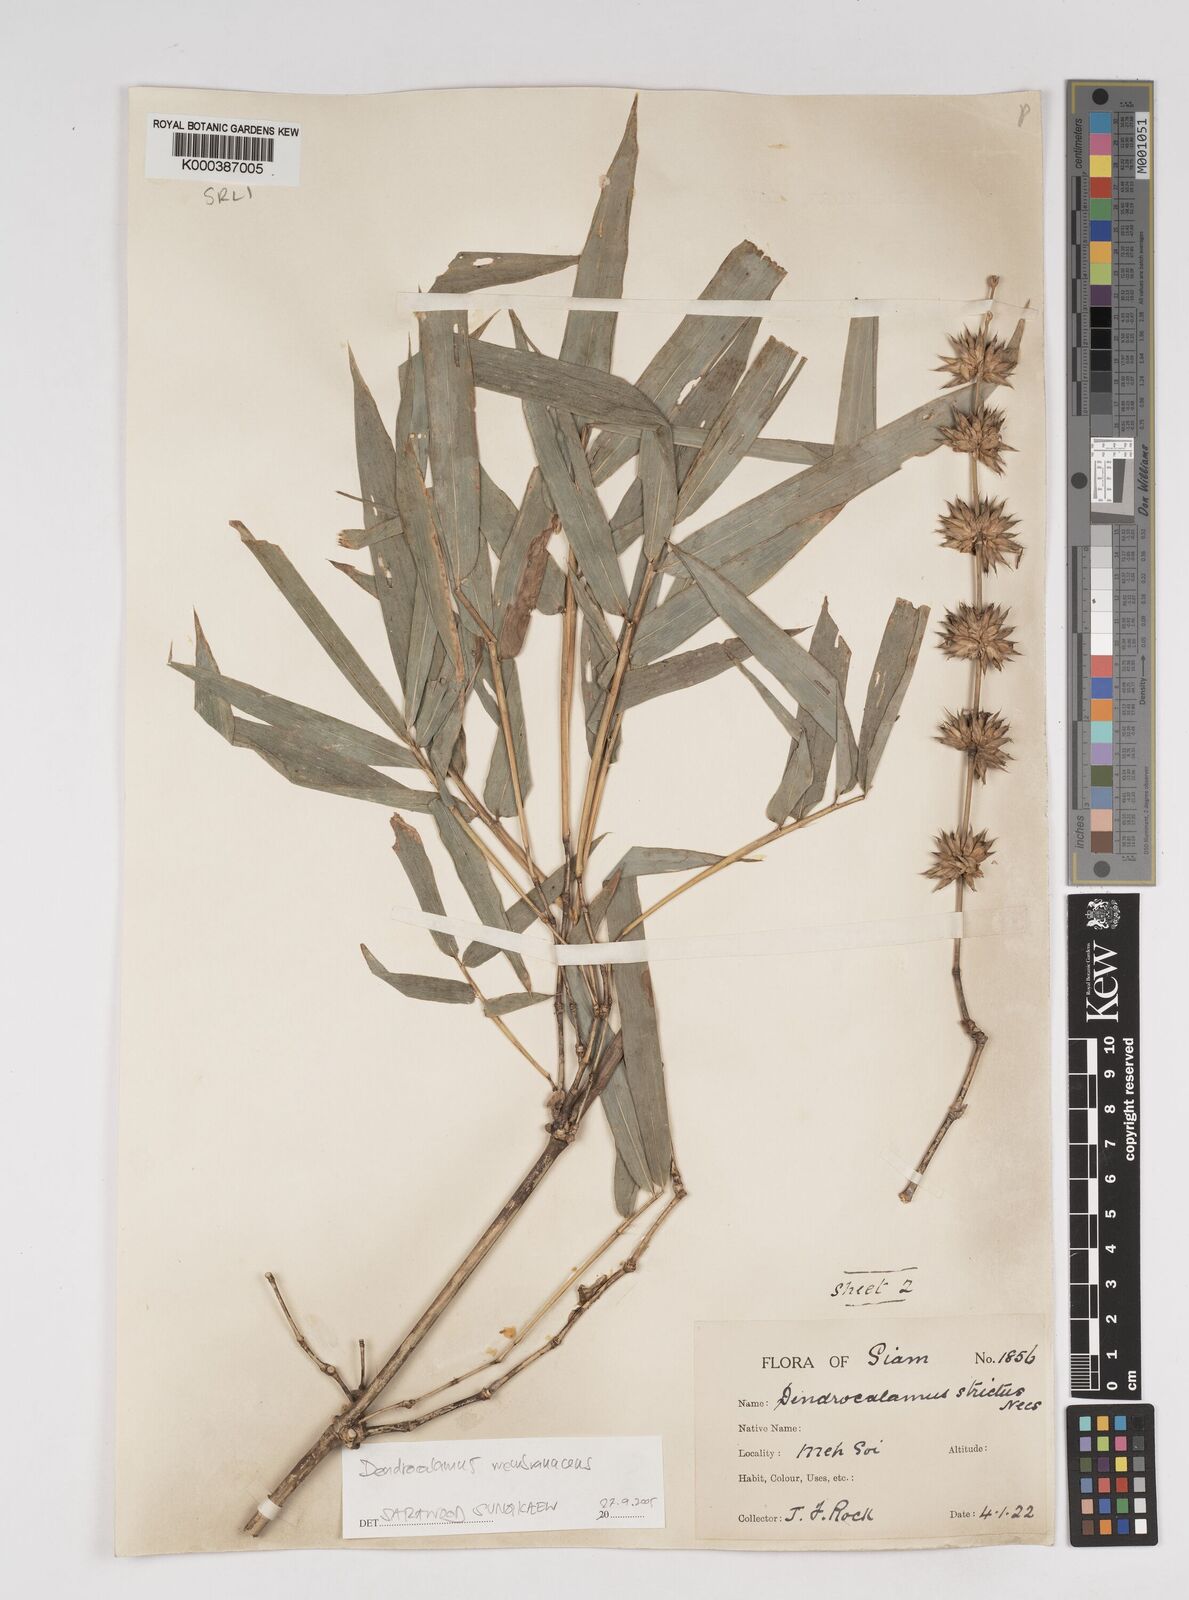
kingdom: Plantae
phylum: Tracheophyta
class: Liliopsida
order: Poales
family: Poaceae
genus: Dendrocalamus
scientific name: Dendrocalamus membranaceus
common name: White bamboo
